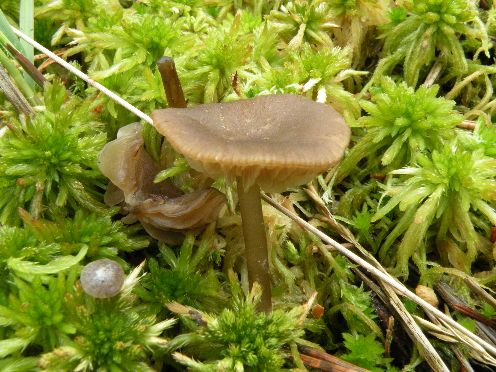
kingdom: Fungi
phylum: Basidiomycota
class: Agaricomycetes
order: Agaricales
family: Lyophyllaceae
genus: Sphagnurus
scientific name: Sphagnurus paluster
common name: tørvemos-gråblad
